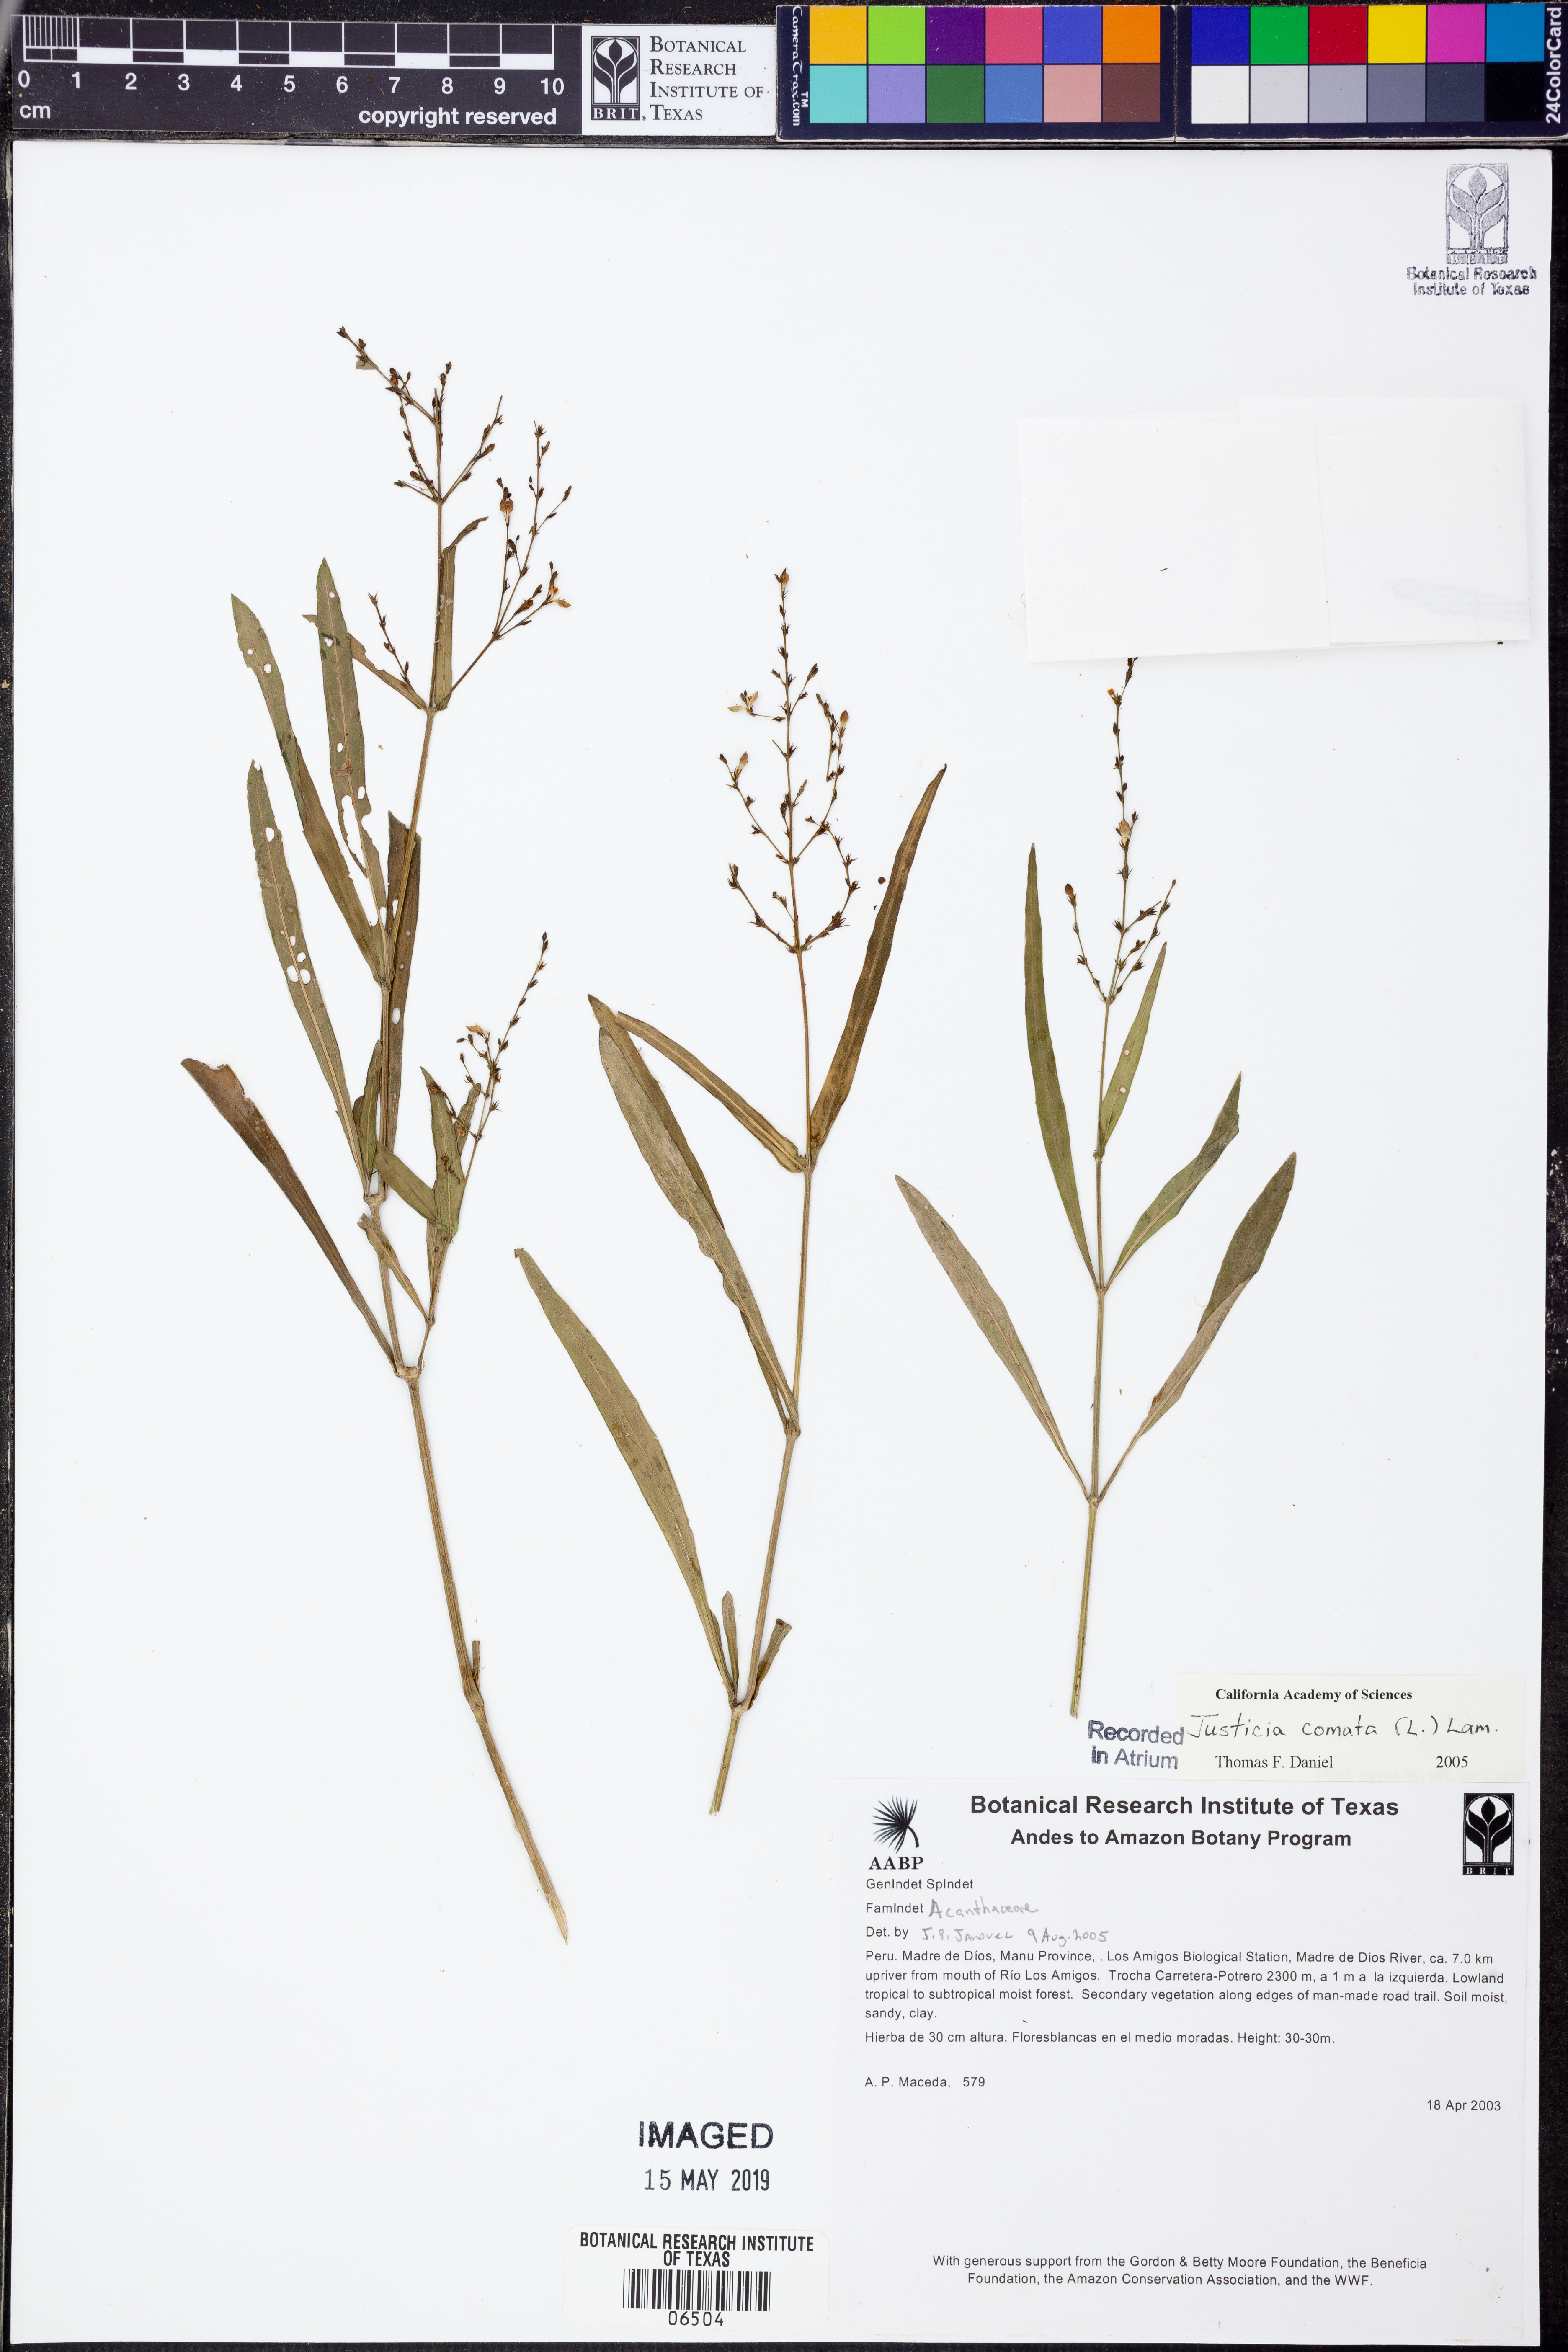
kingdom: Plantae
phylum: Tracheophyta
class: Magnoliopsida
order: Lamiales
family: Acanthaceae
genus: Dianthera
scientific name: Dianthera comata
